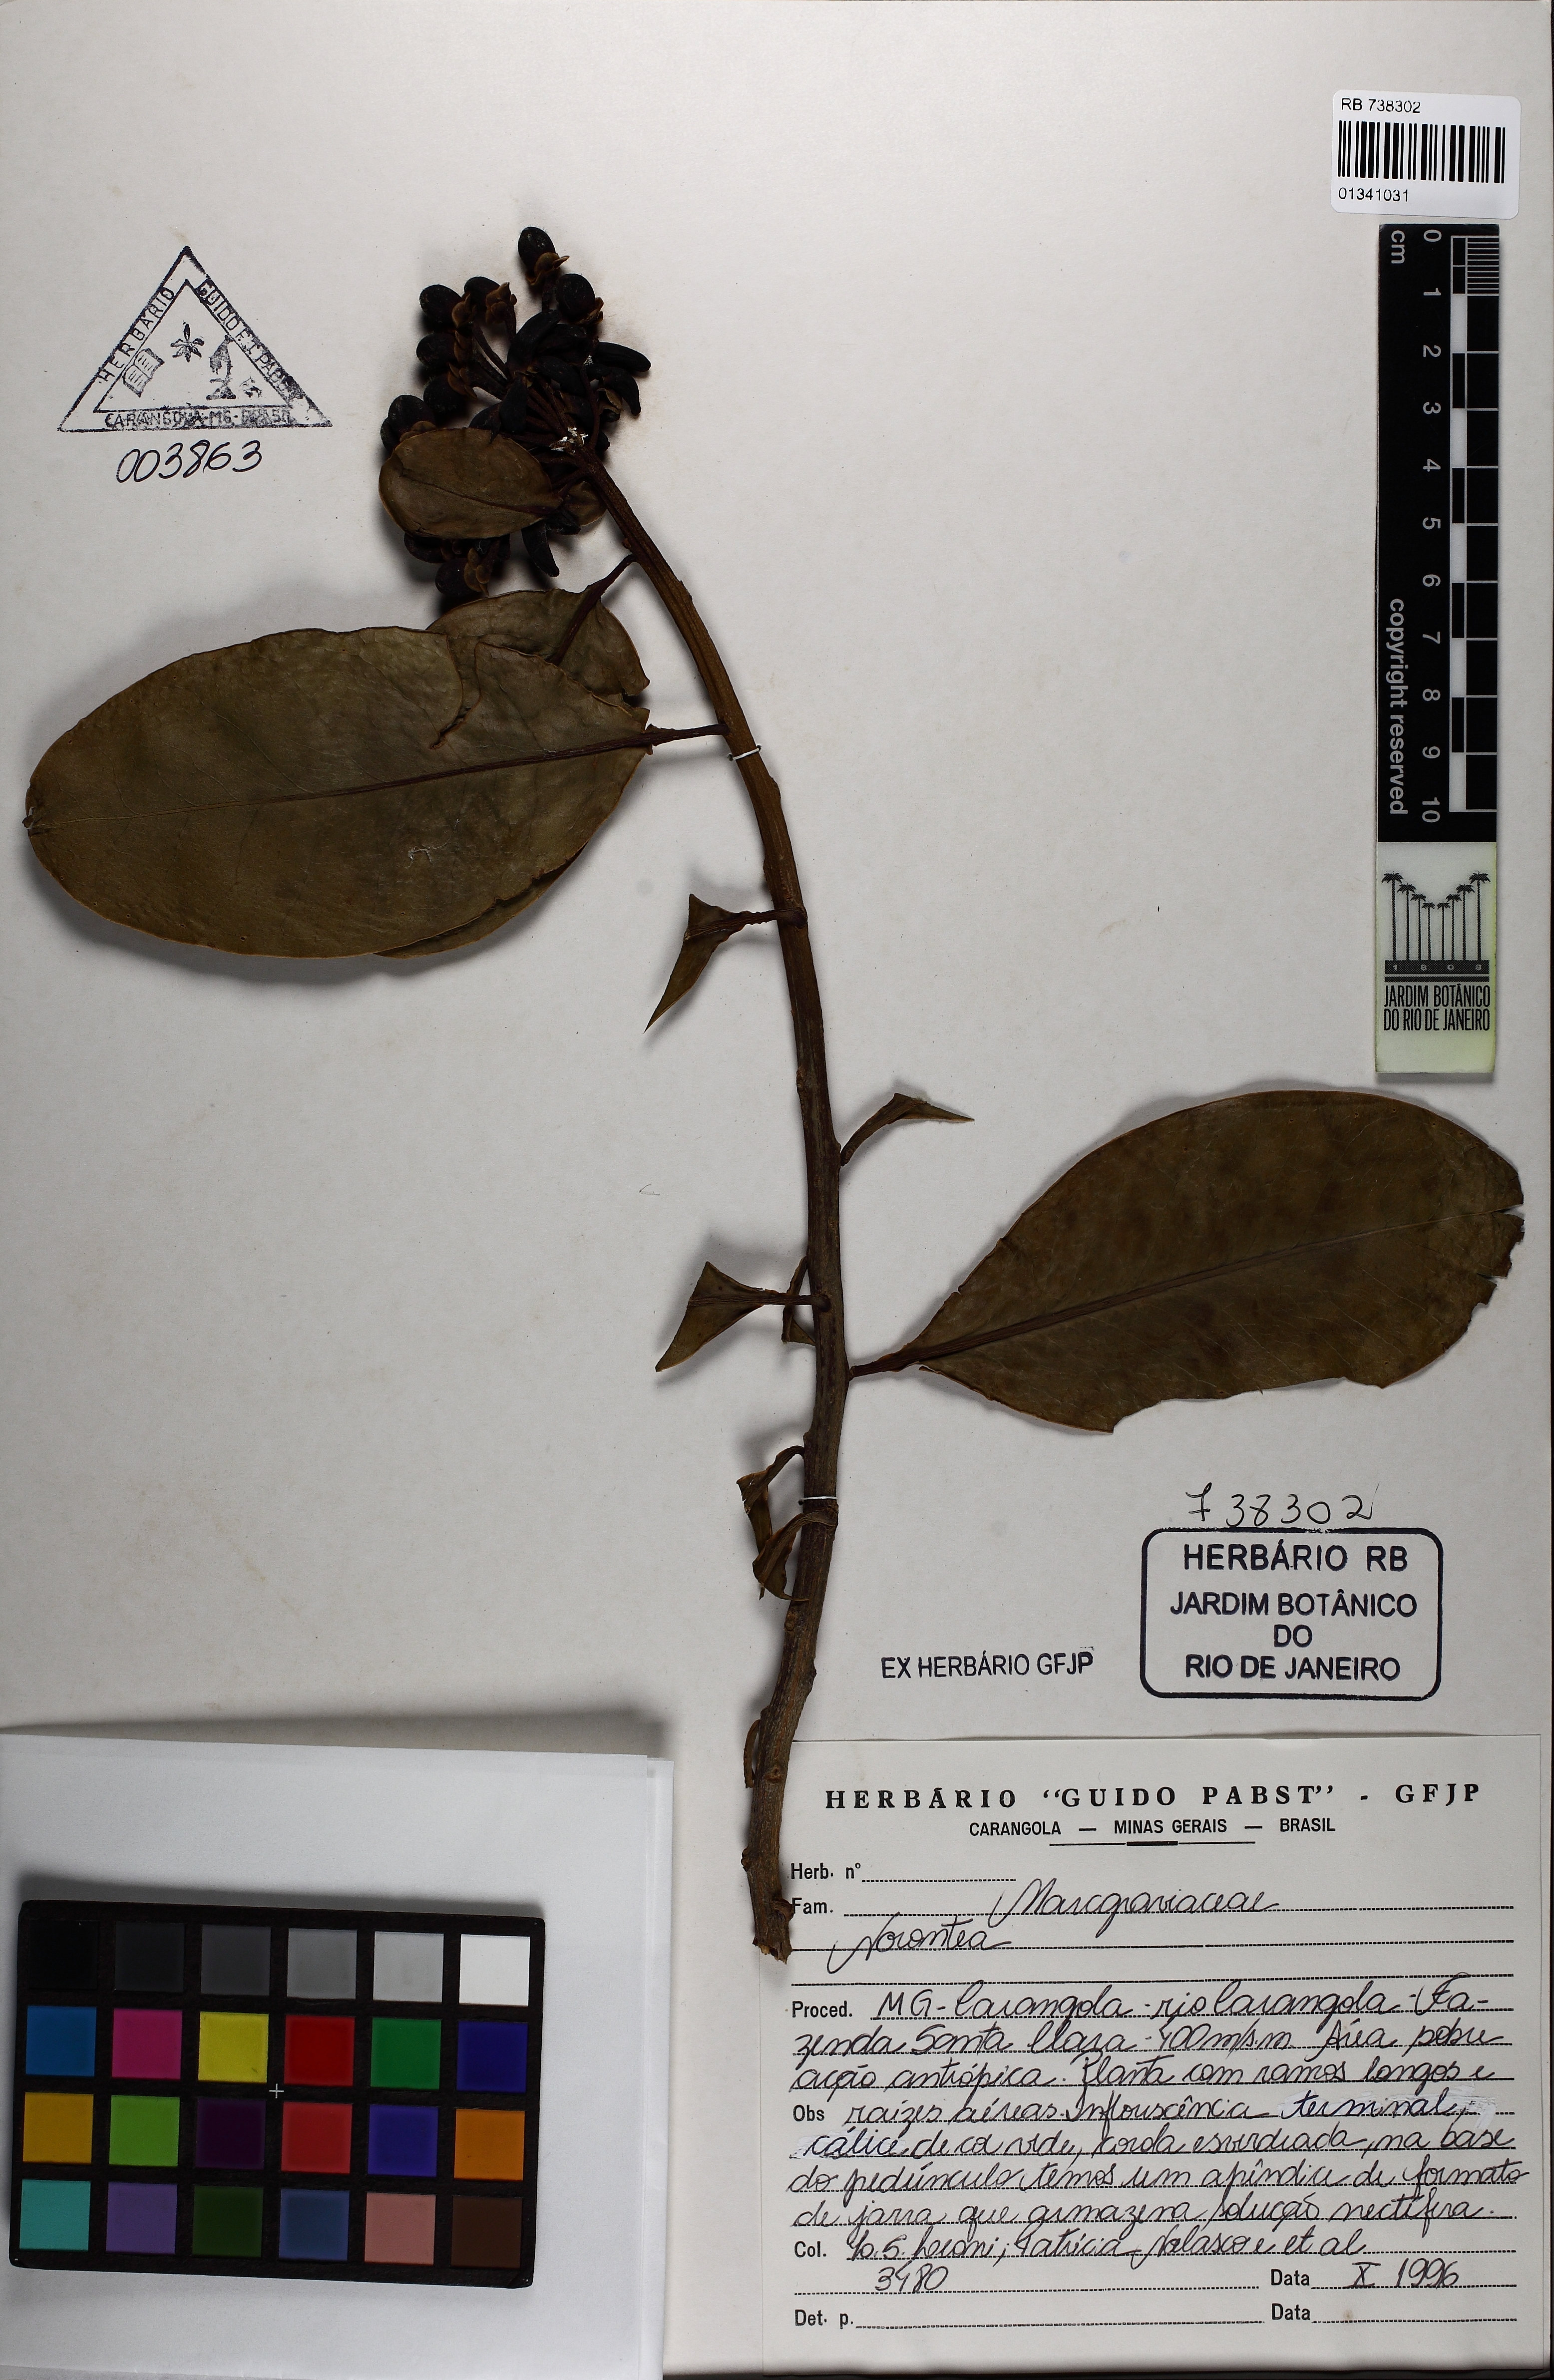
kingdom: Plantae
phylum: Tracheophyta
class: Magnoliopsida
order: Ericales
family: Marcgraviaceae
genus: Norantea
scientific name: Norantea
